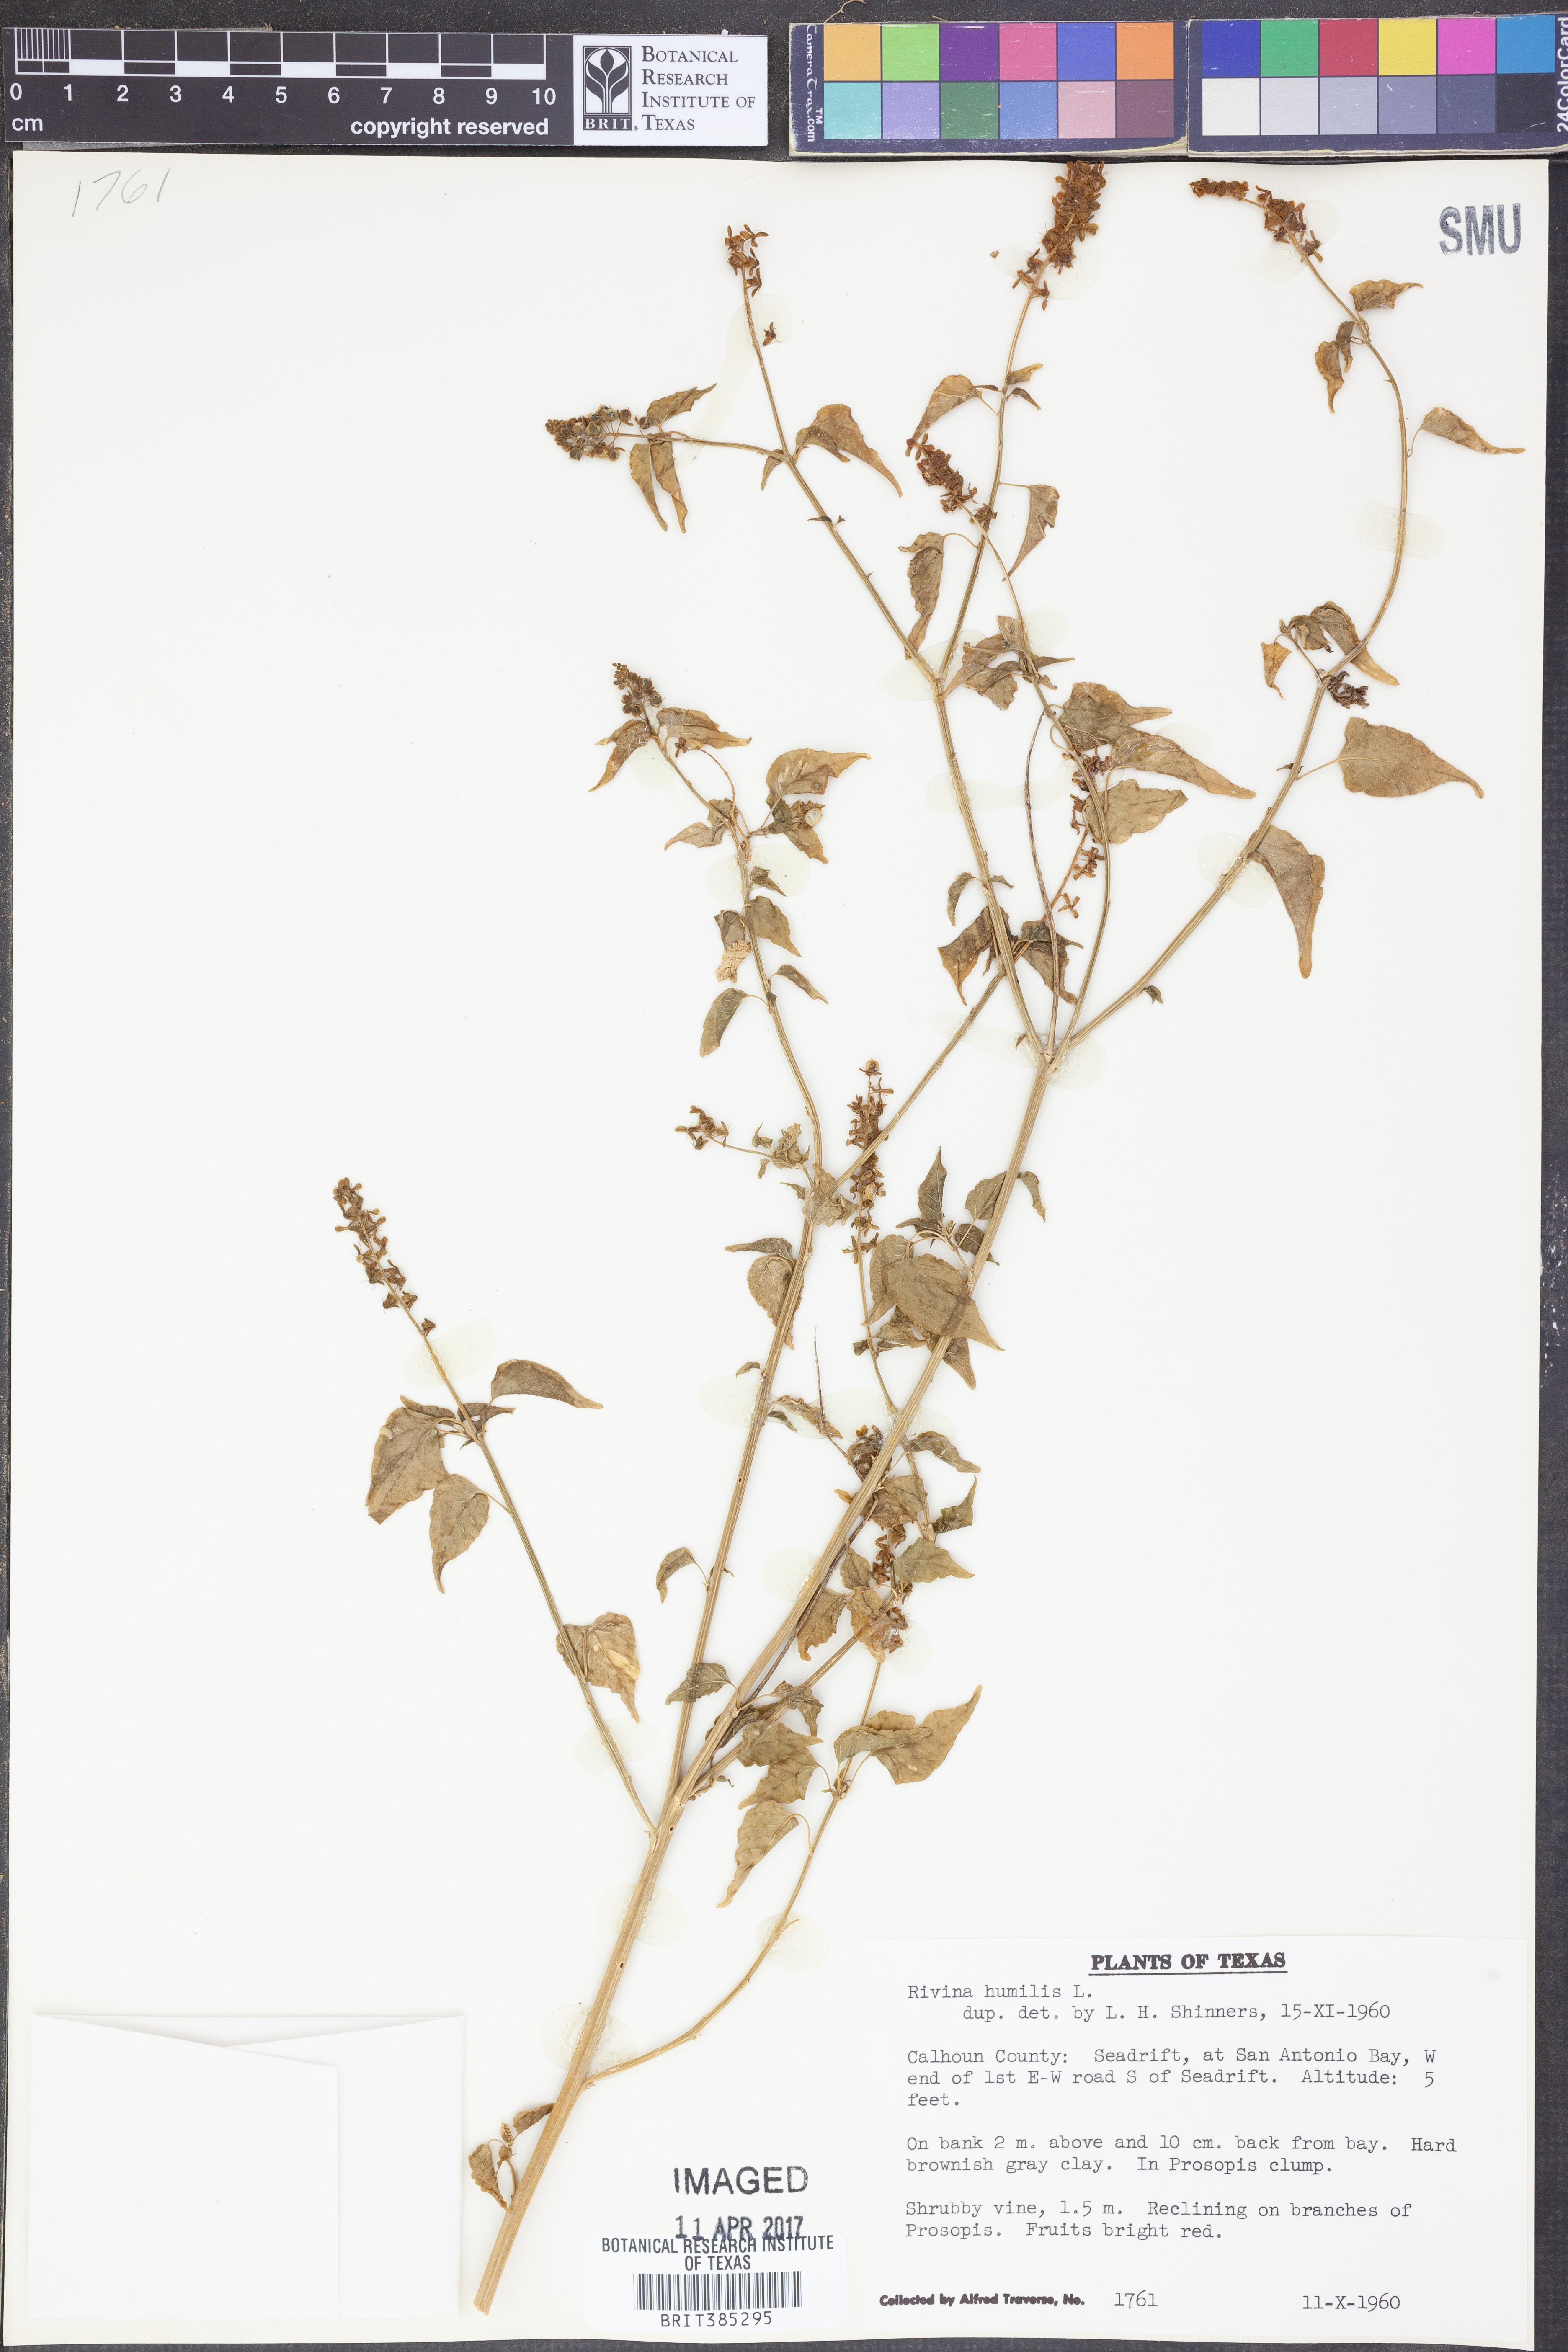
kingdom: Plantae
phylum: Tracheophyta
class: Magnoliopsida
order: Caryophyllales
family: Phytolaccaceae
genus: Rivina
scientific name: Rivina humilis
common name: Rougeplant
